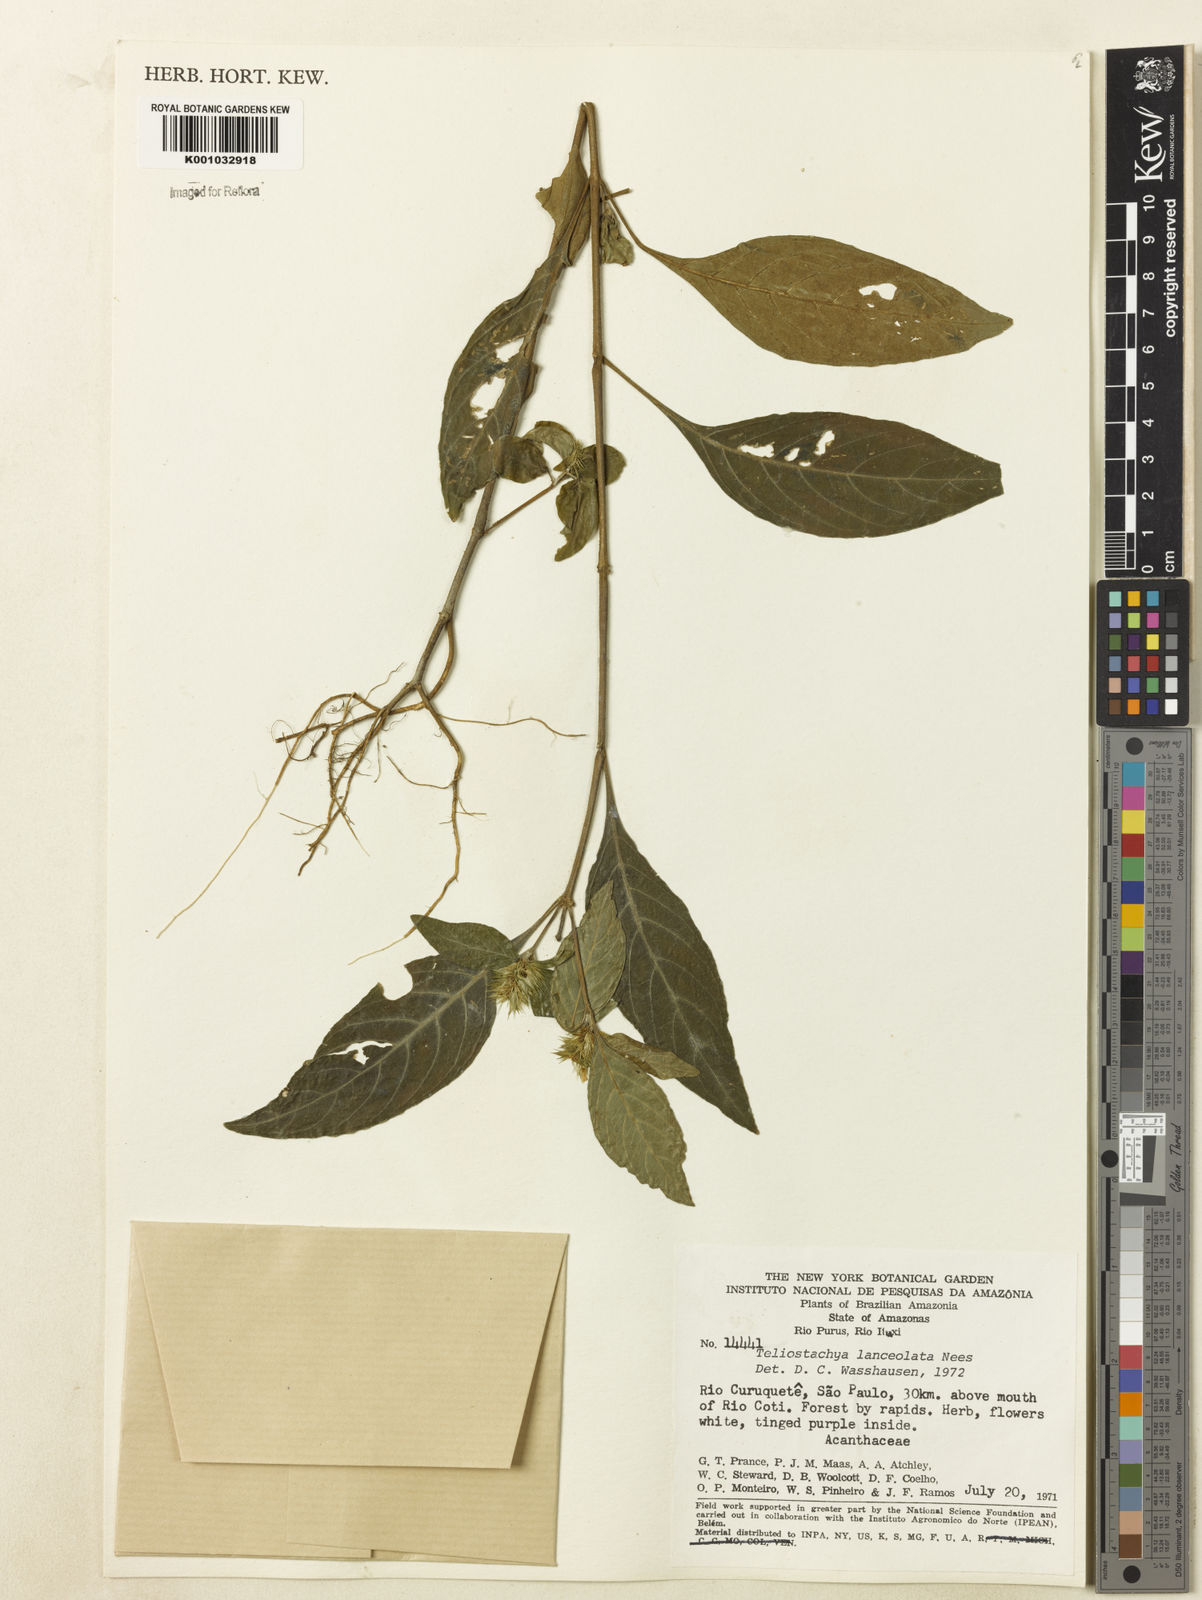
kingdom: Plantae
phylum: Tracheophyta
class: Magnoliopsida
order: Lamiales
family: Acanthaceae
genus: Lepidagathis
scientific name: Lepidagathis alopecuroidea
